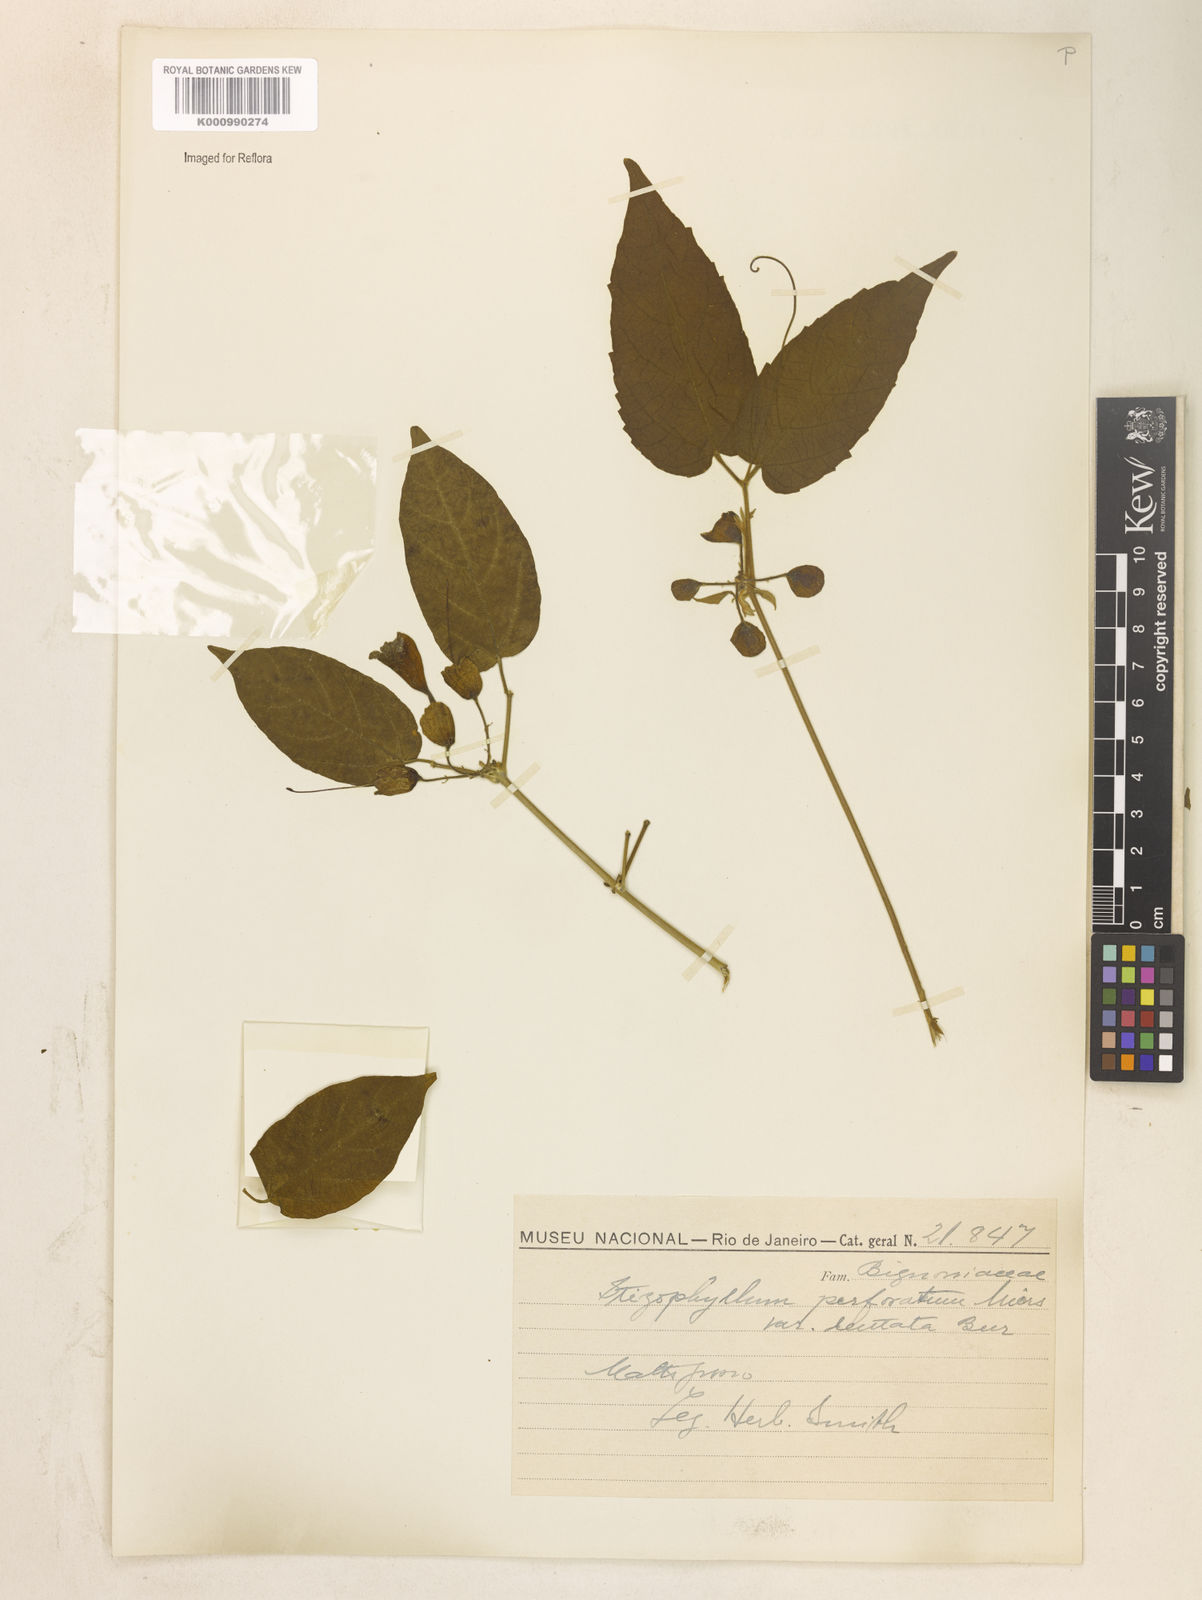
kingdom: Plantae
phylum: Tracheophyta
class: Magnoliopsida
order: Lamiales
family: Bignoniaceae
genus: Stizophyllum
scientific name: Stizophyllum perforatum
